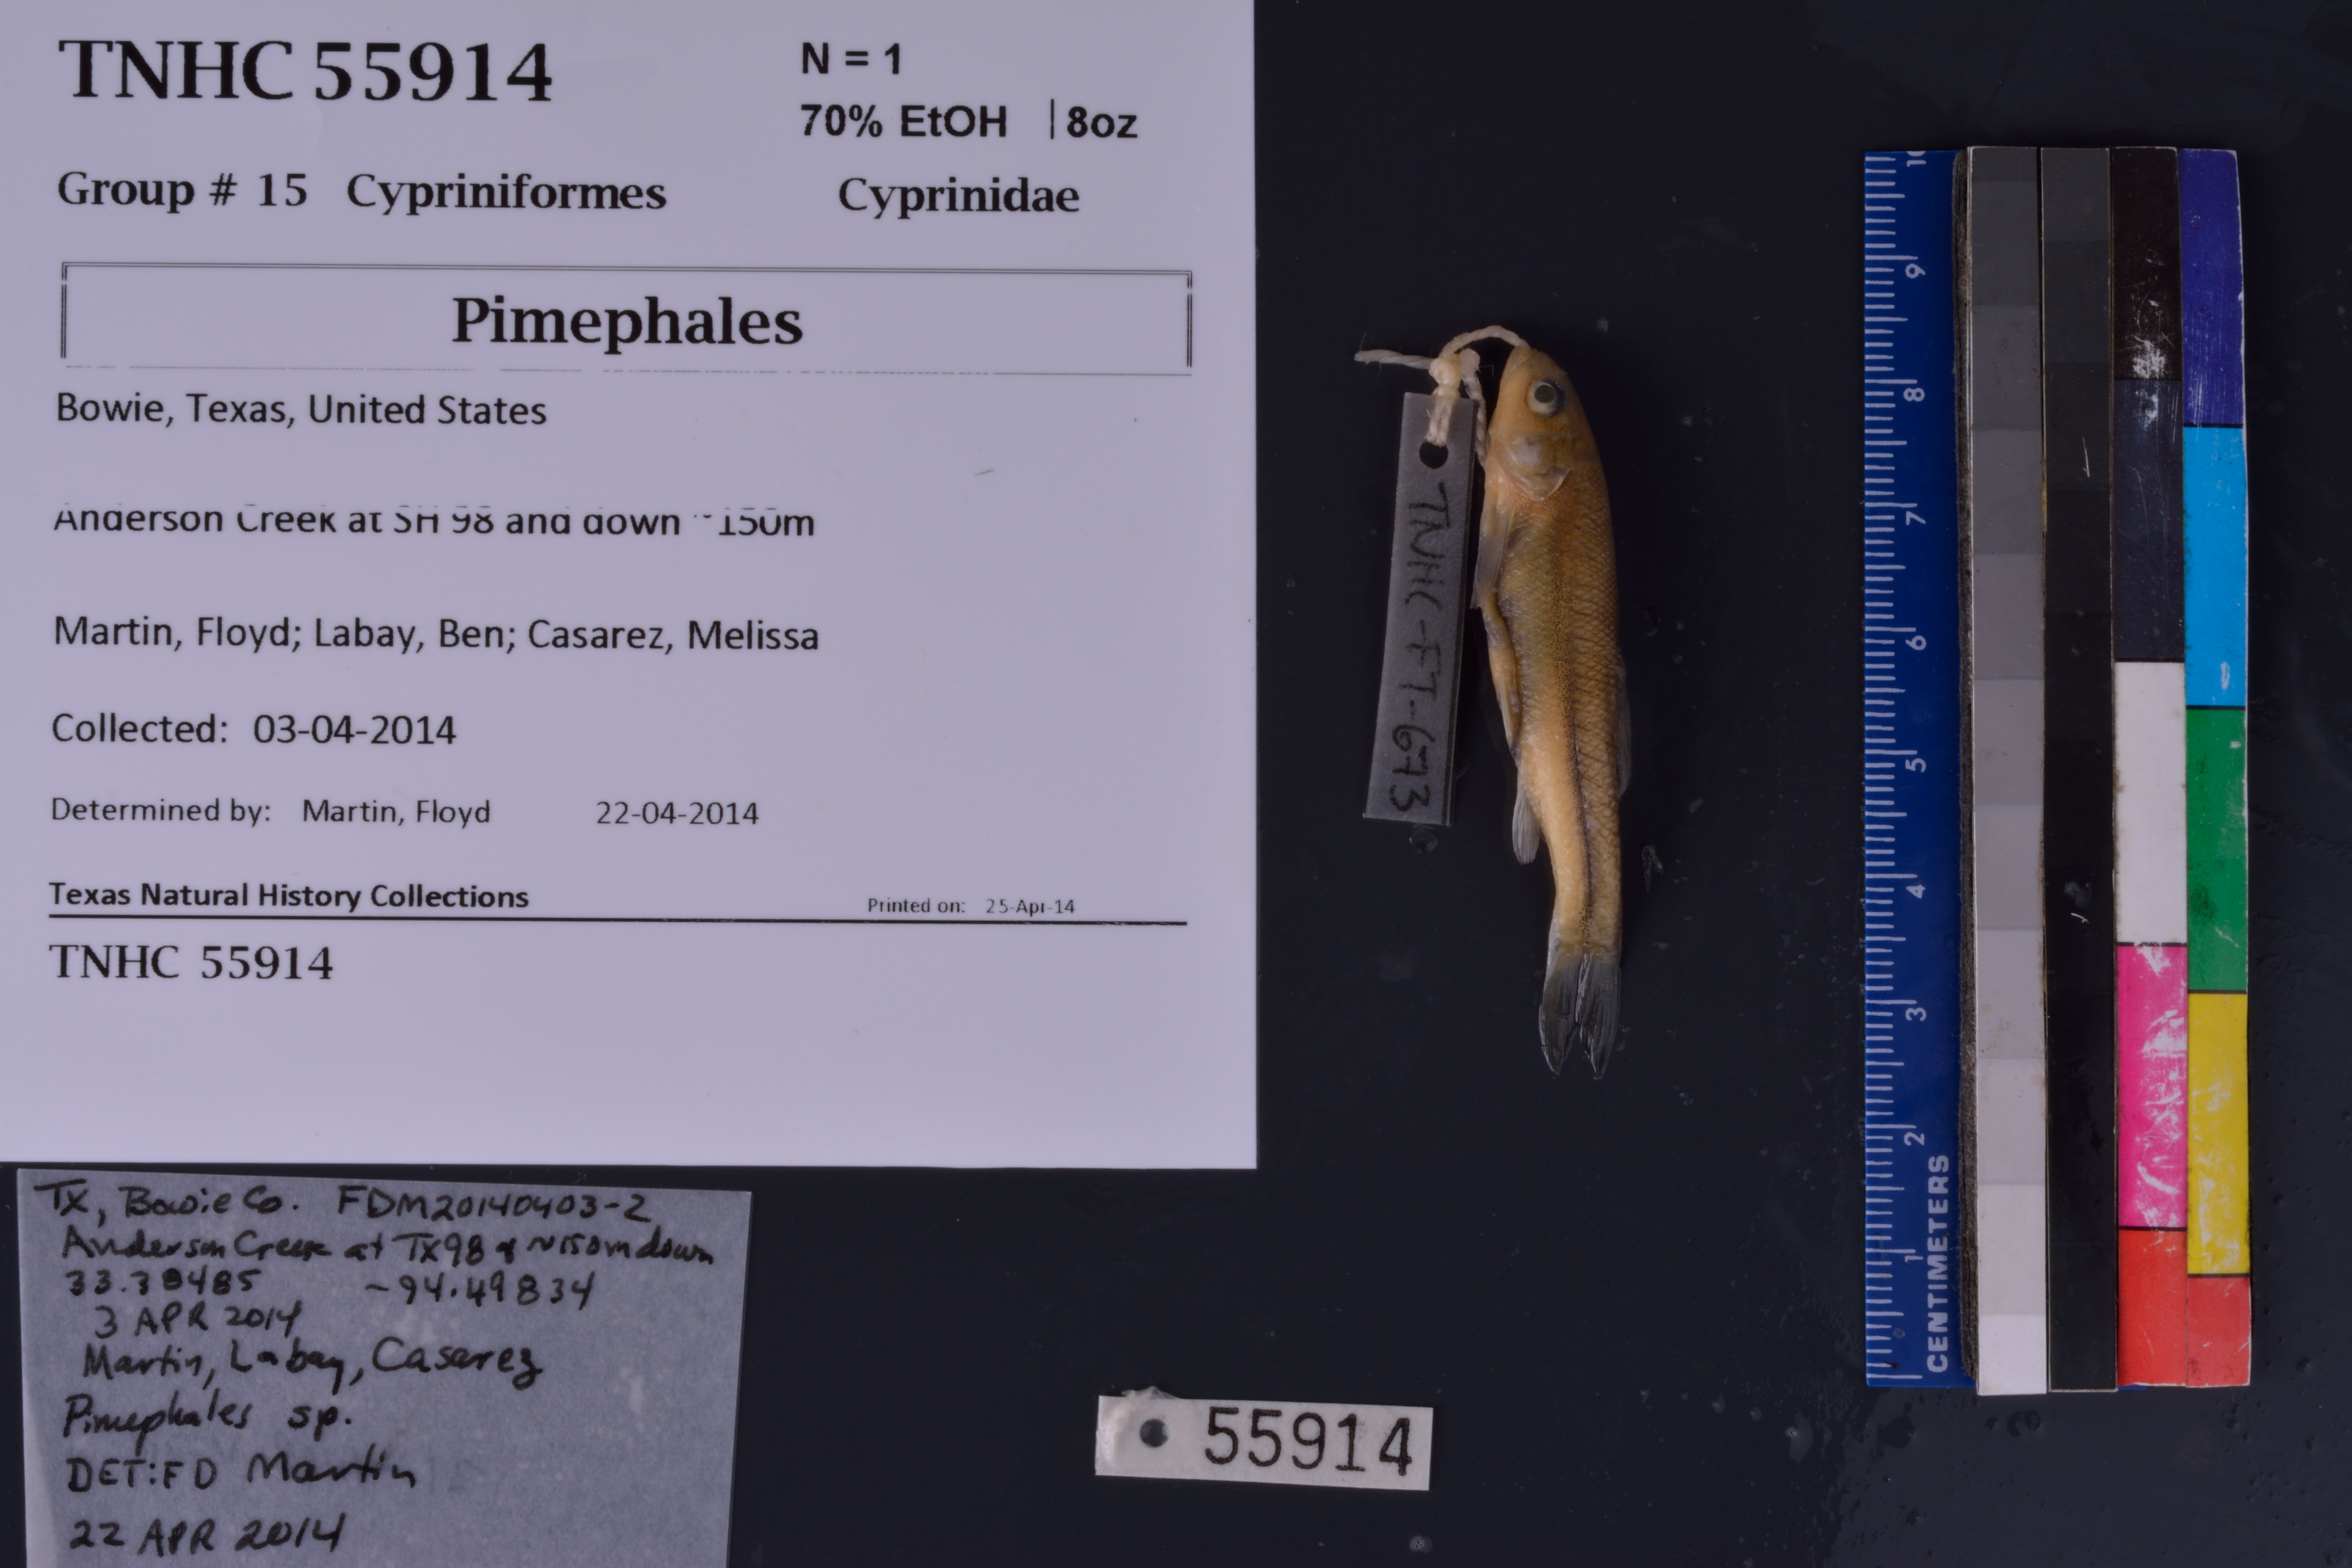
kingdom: Animalia
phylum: Chordata
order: Cypriniformes
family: Cyprinidae
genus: Pimephales
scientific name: Pimephales
